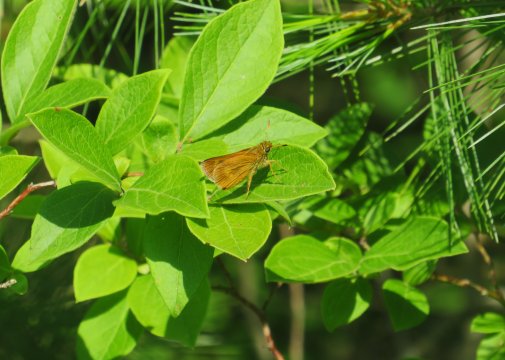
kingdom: Animalia
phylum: Arthropoda
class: Insecta
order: Lepidoptera
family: Hesperiidae
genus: Euphyes
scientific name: Euphyes conspicua
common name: Black Dash
